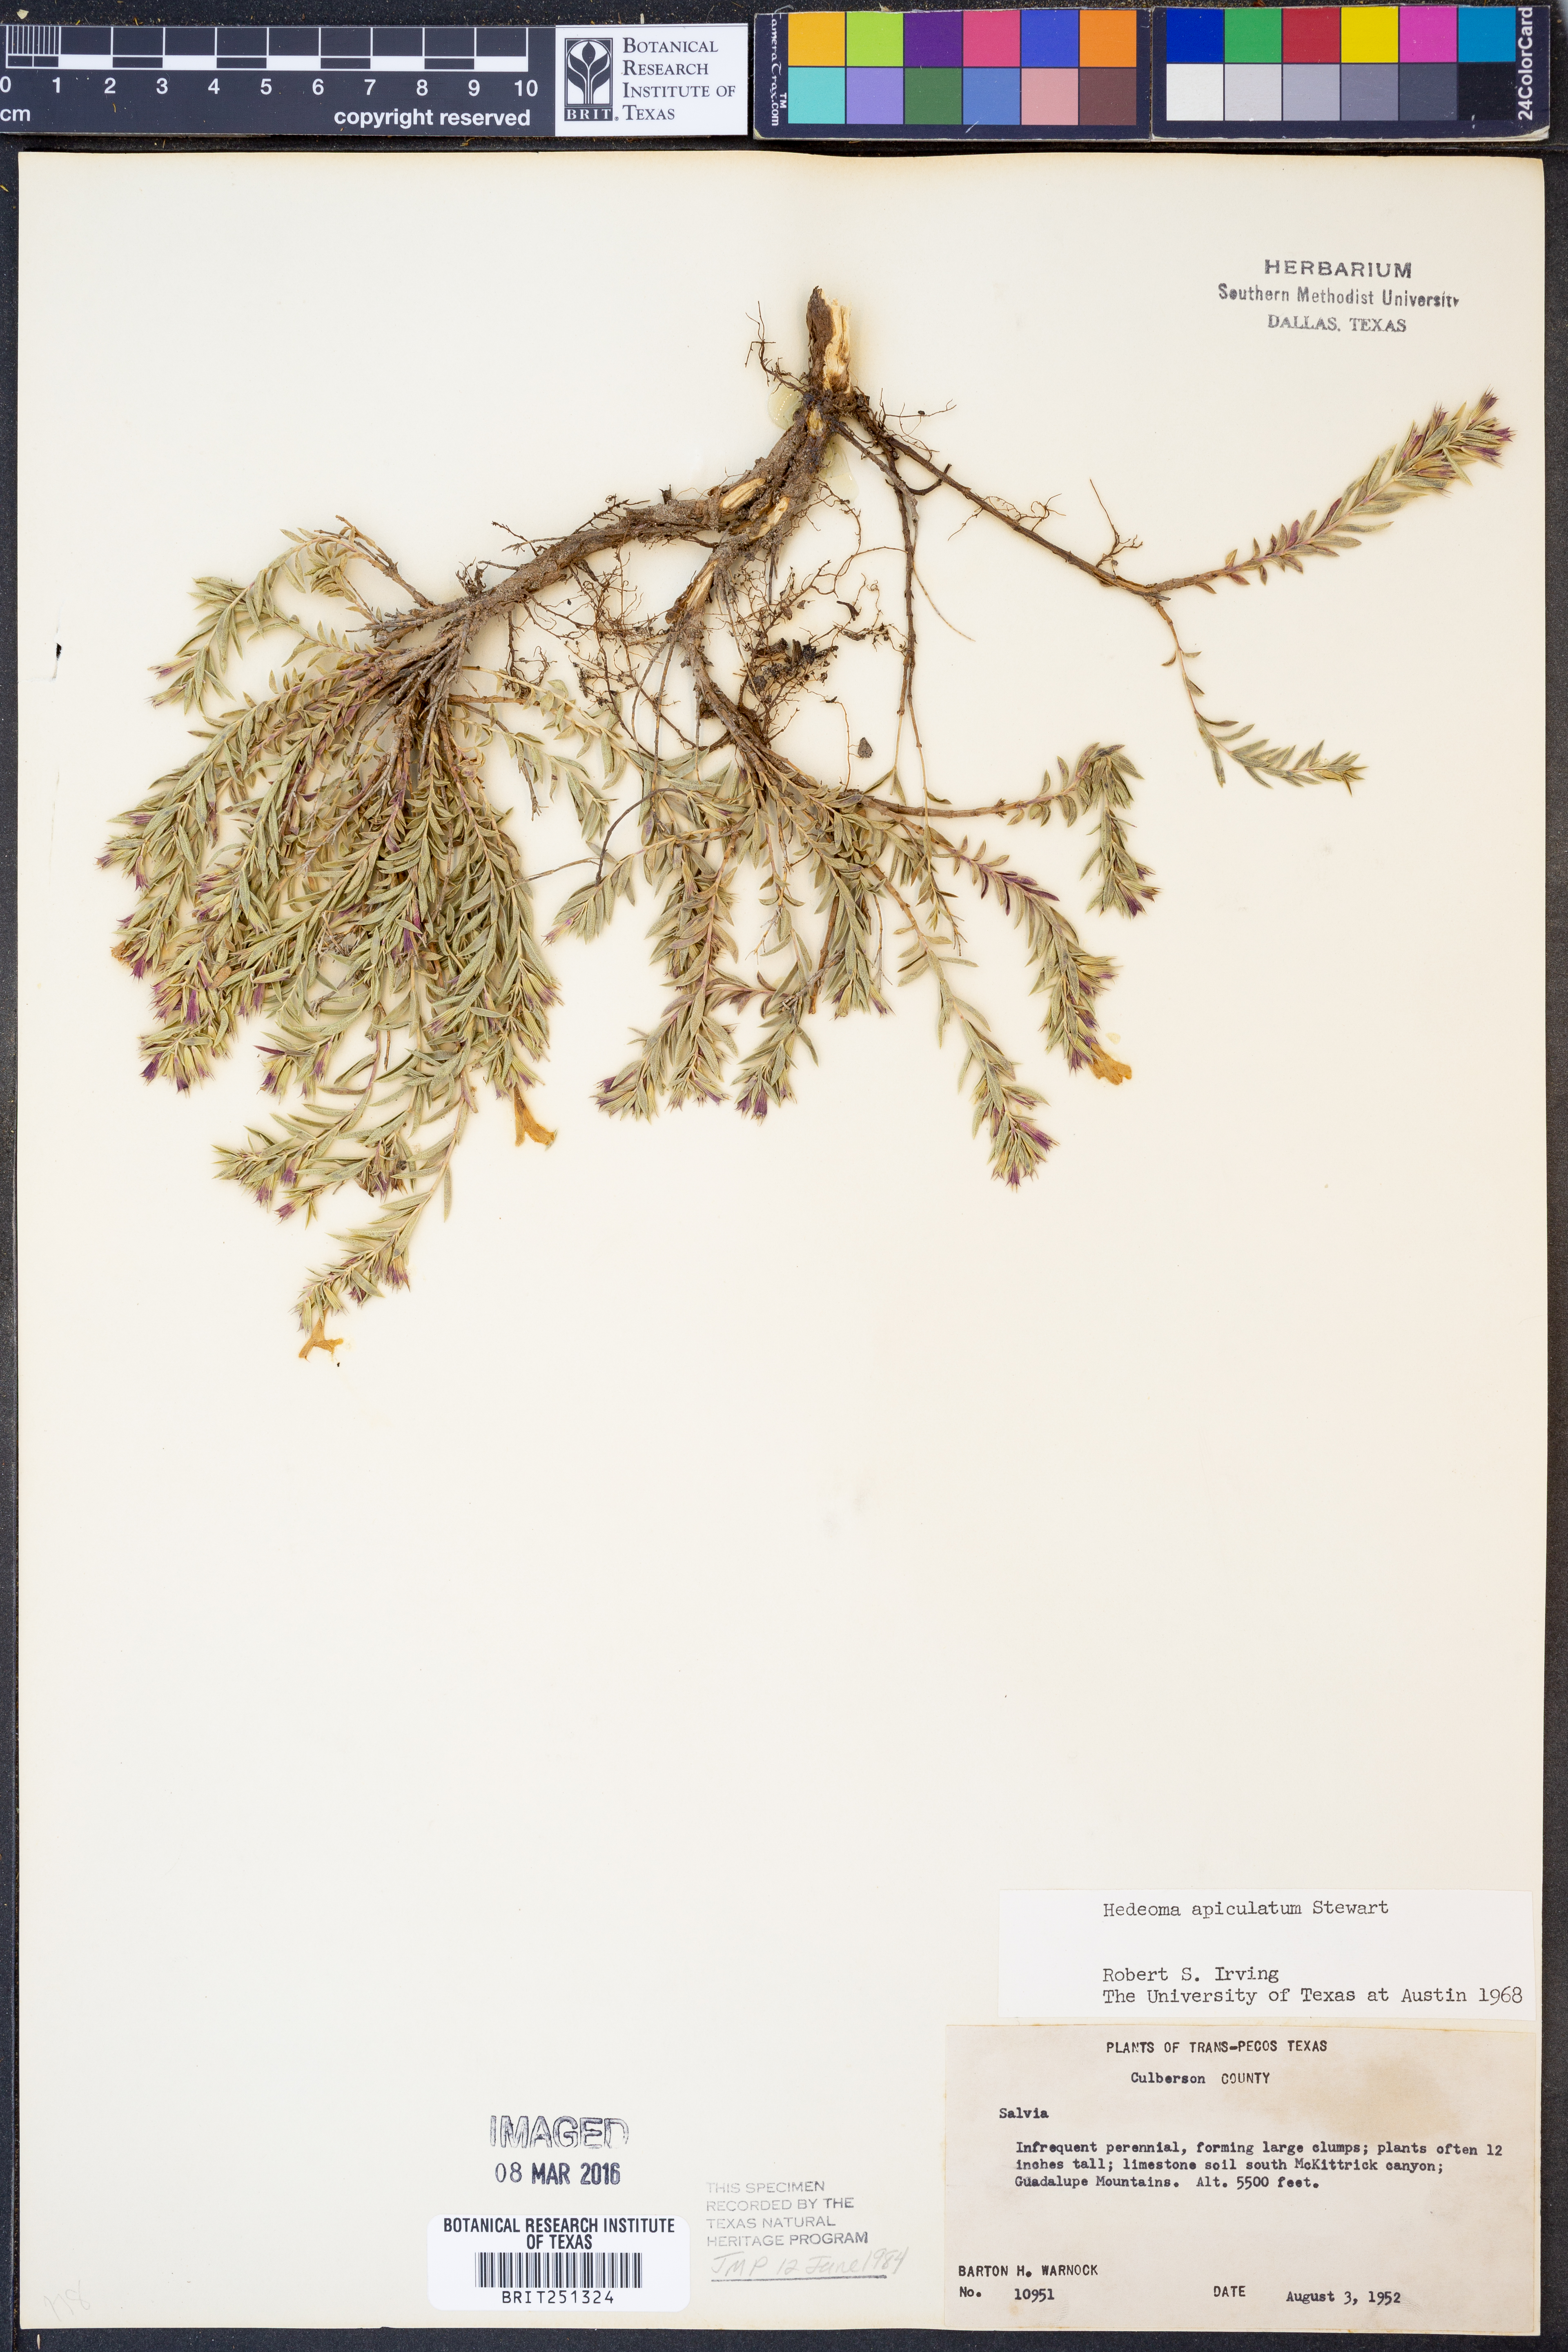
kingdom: Plantae
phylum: Tracheophyta
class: Magnoliopsida
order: Lamiales
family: Lamiaceae
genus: Hedeoma
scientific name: Hedeoma apiculata
